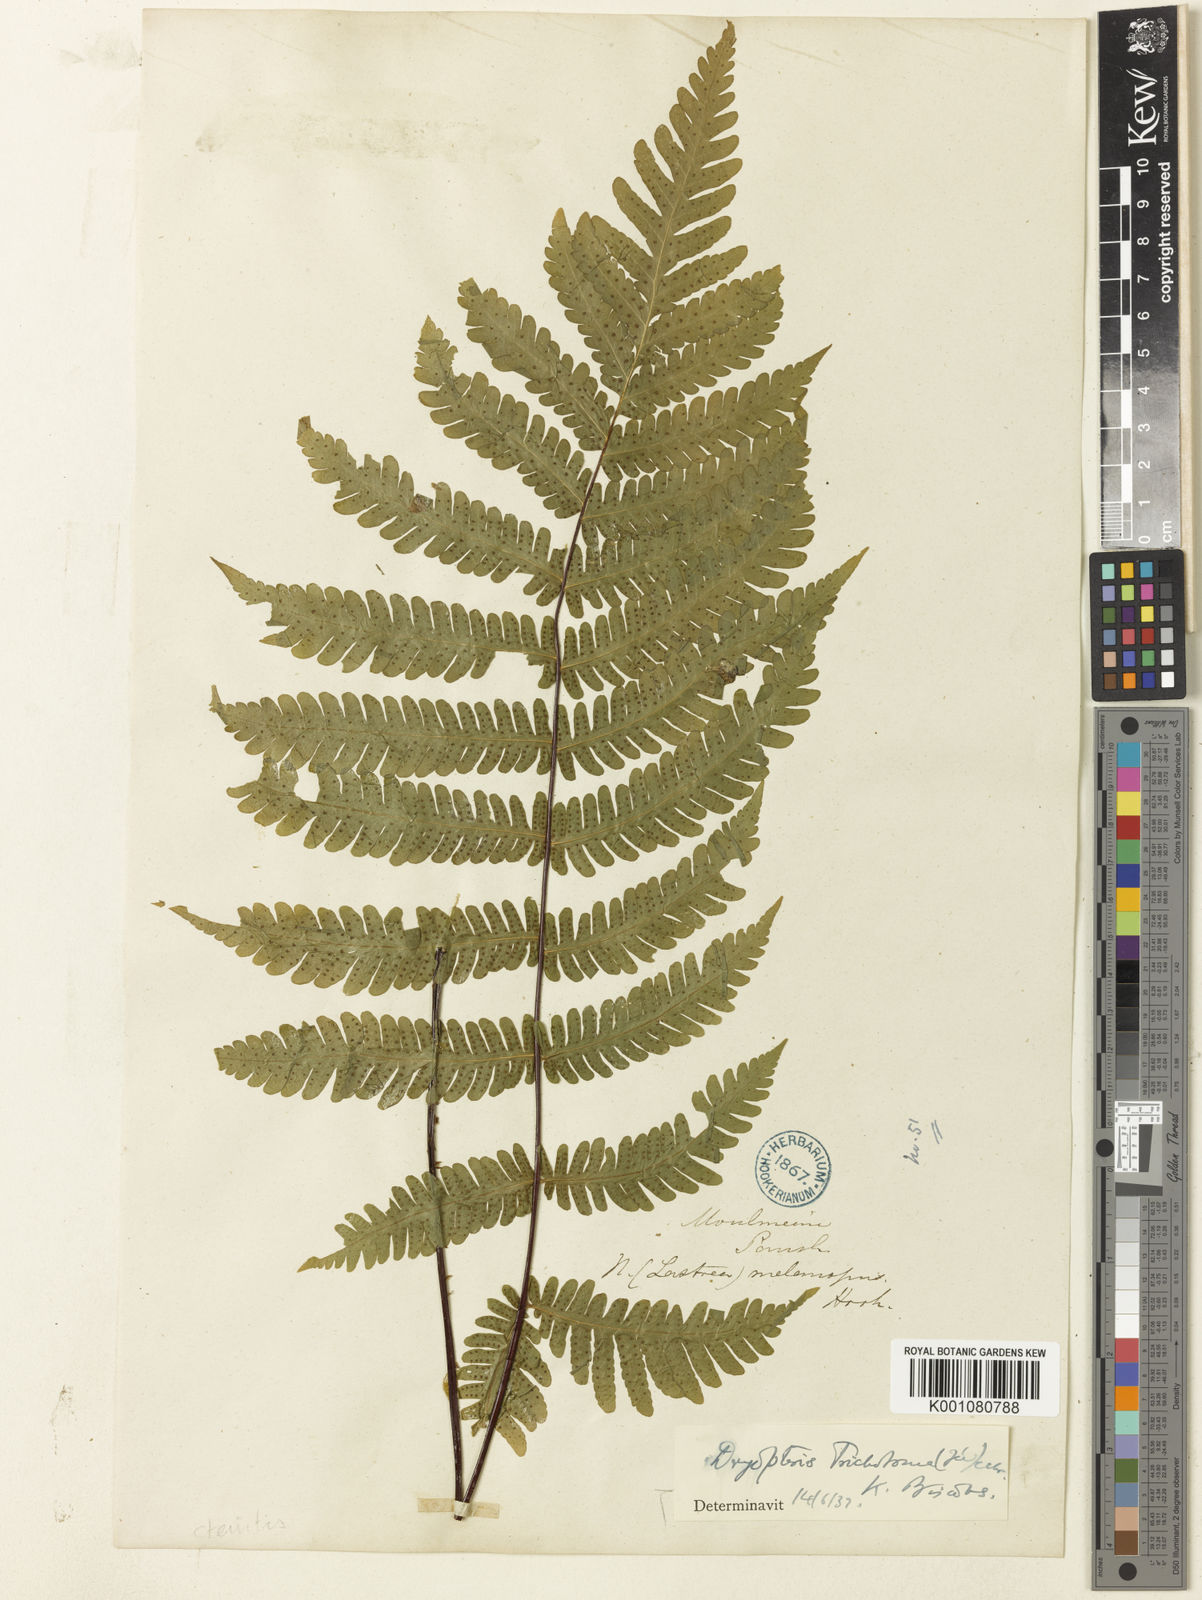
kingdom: Plantae
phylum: Tracheophyta
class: Polypodiopsida
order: Polypodiales
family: Tectariaceae
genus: Tectaria
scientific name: Tectaria sagenioides
